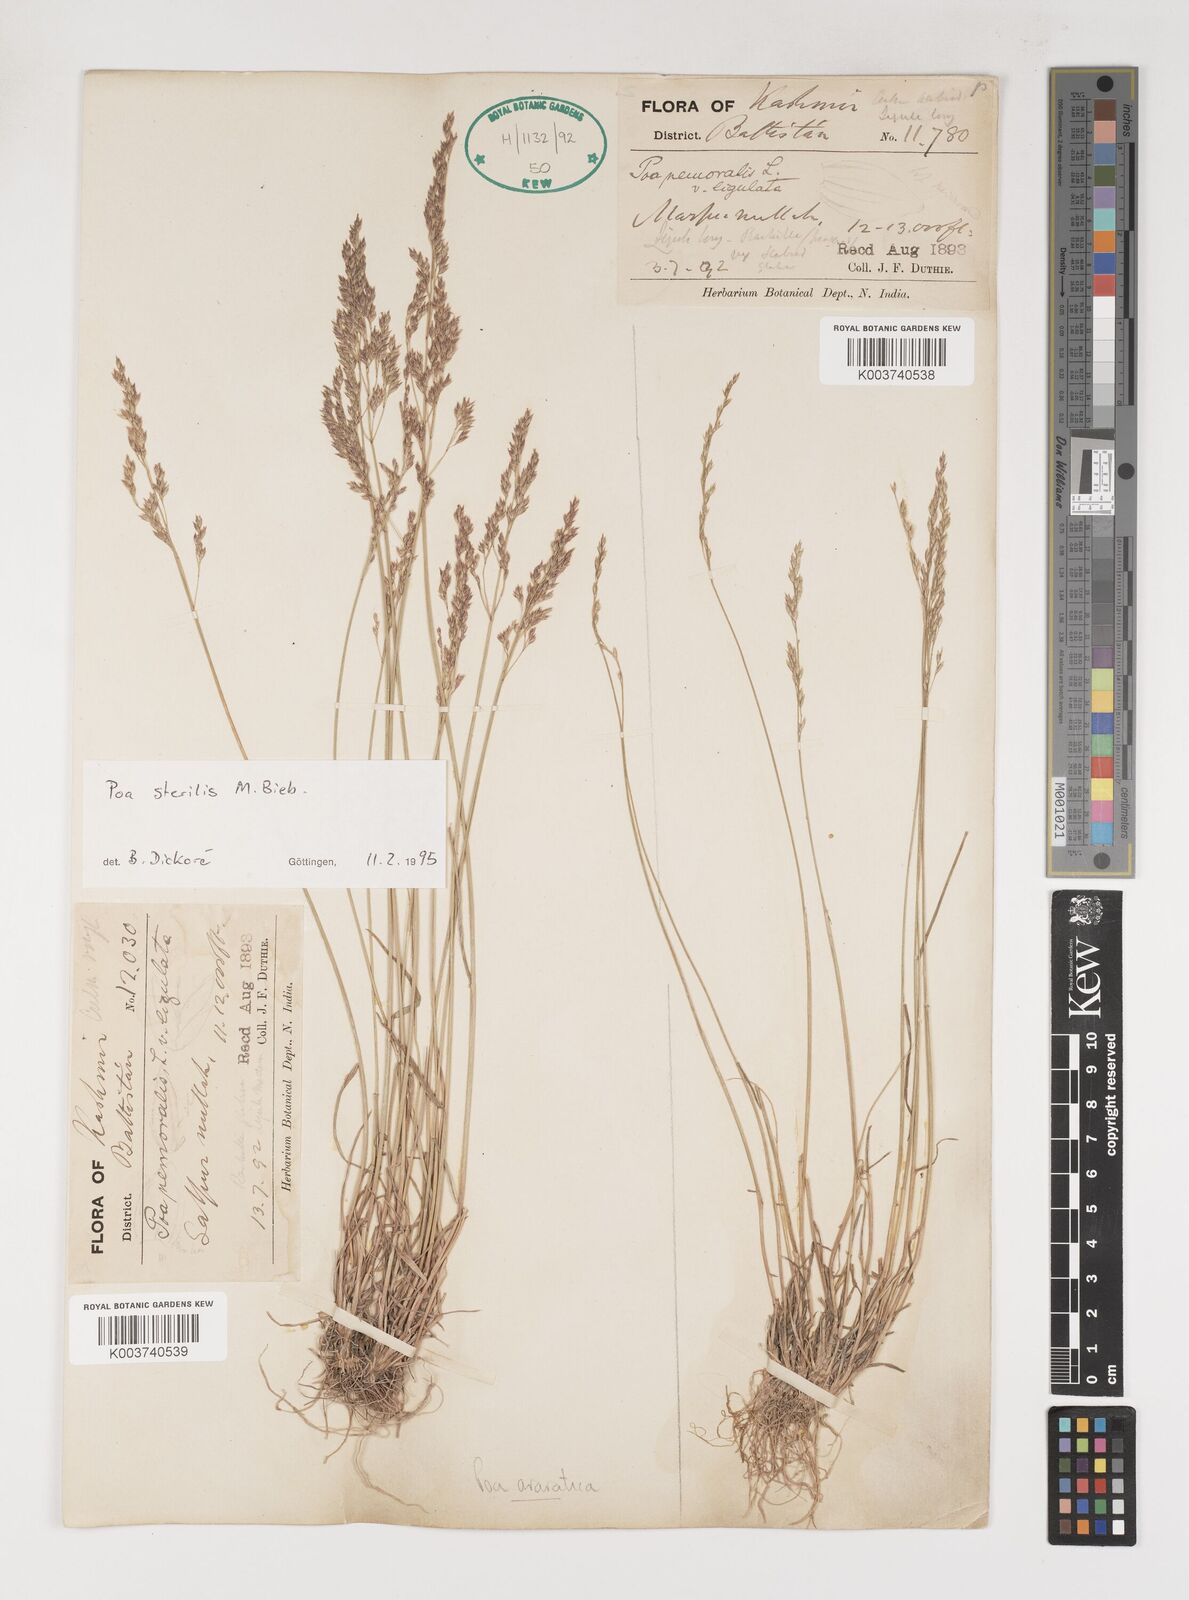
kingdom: Plantae
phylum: Tracheophyta
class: Liliopsida
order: Poales
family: Poaceae
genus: Poa
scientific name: Poa sterilis
